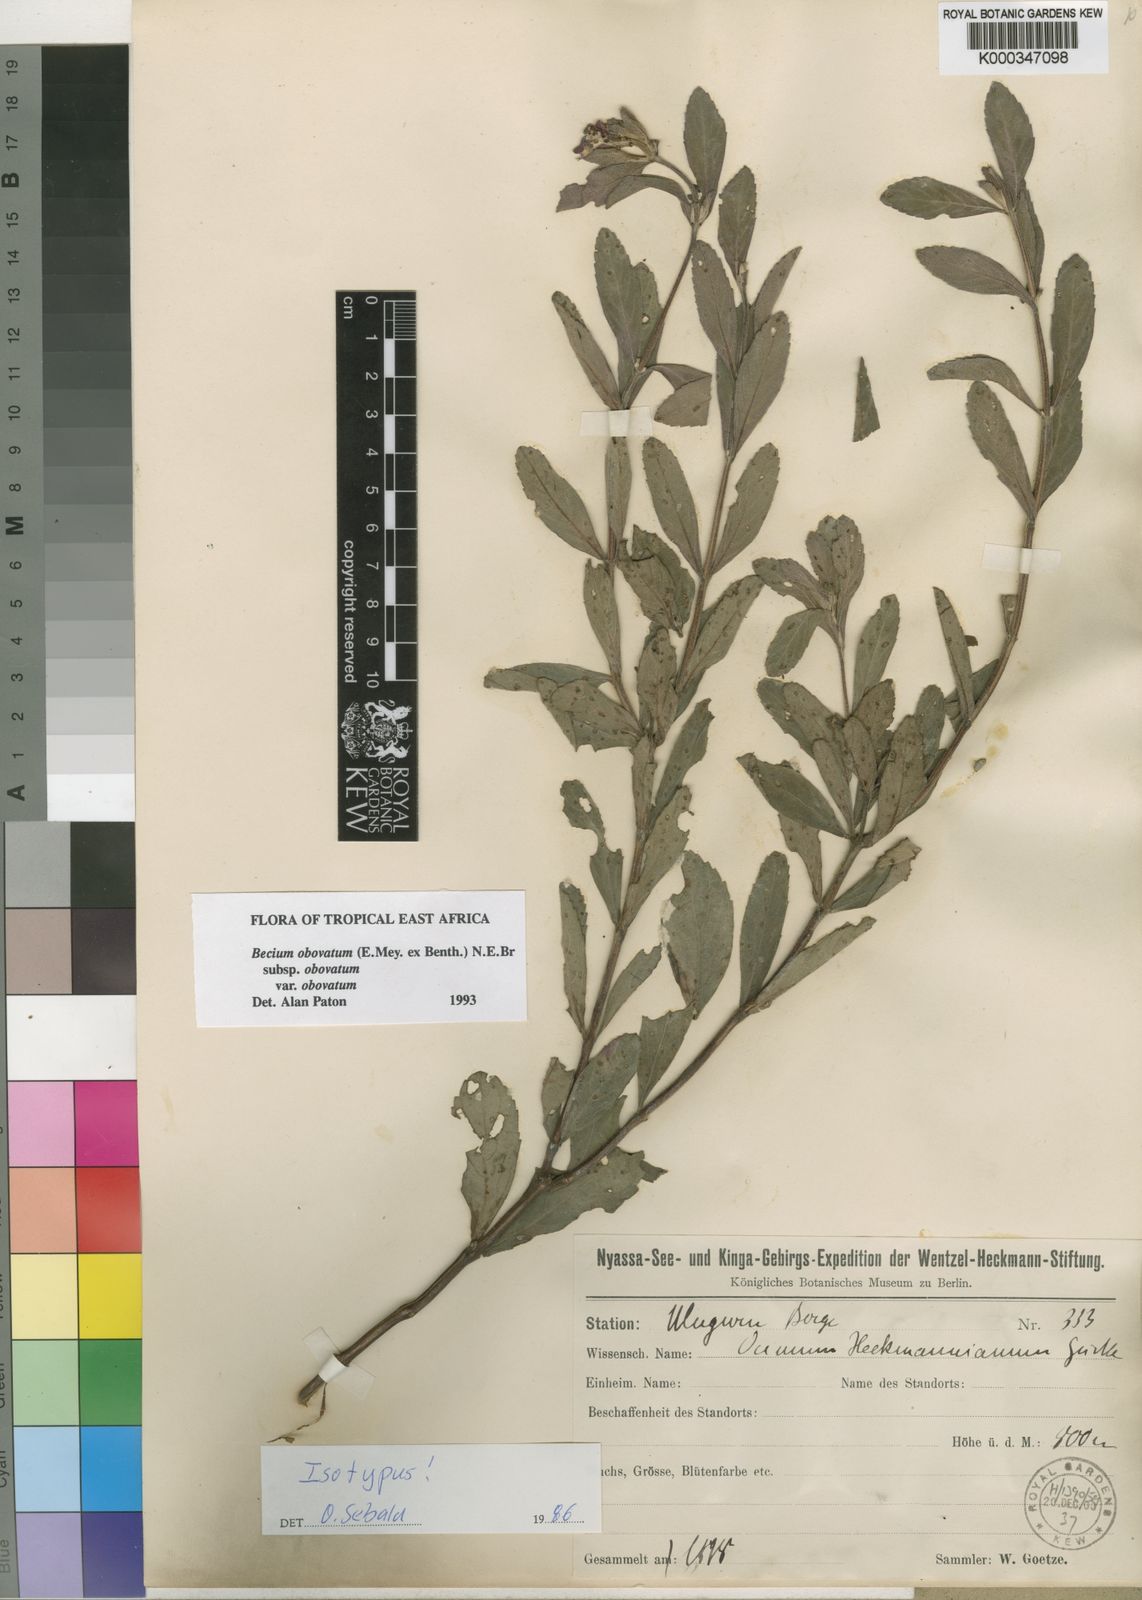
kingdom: Plantae
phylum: Tracheophyta
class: Magnoliopsida
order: Lamiales
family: Lamiaceae
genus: Ocimum
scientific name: Ocimum obovatum
